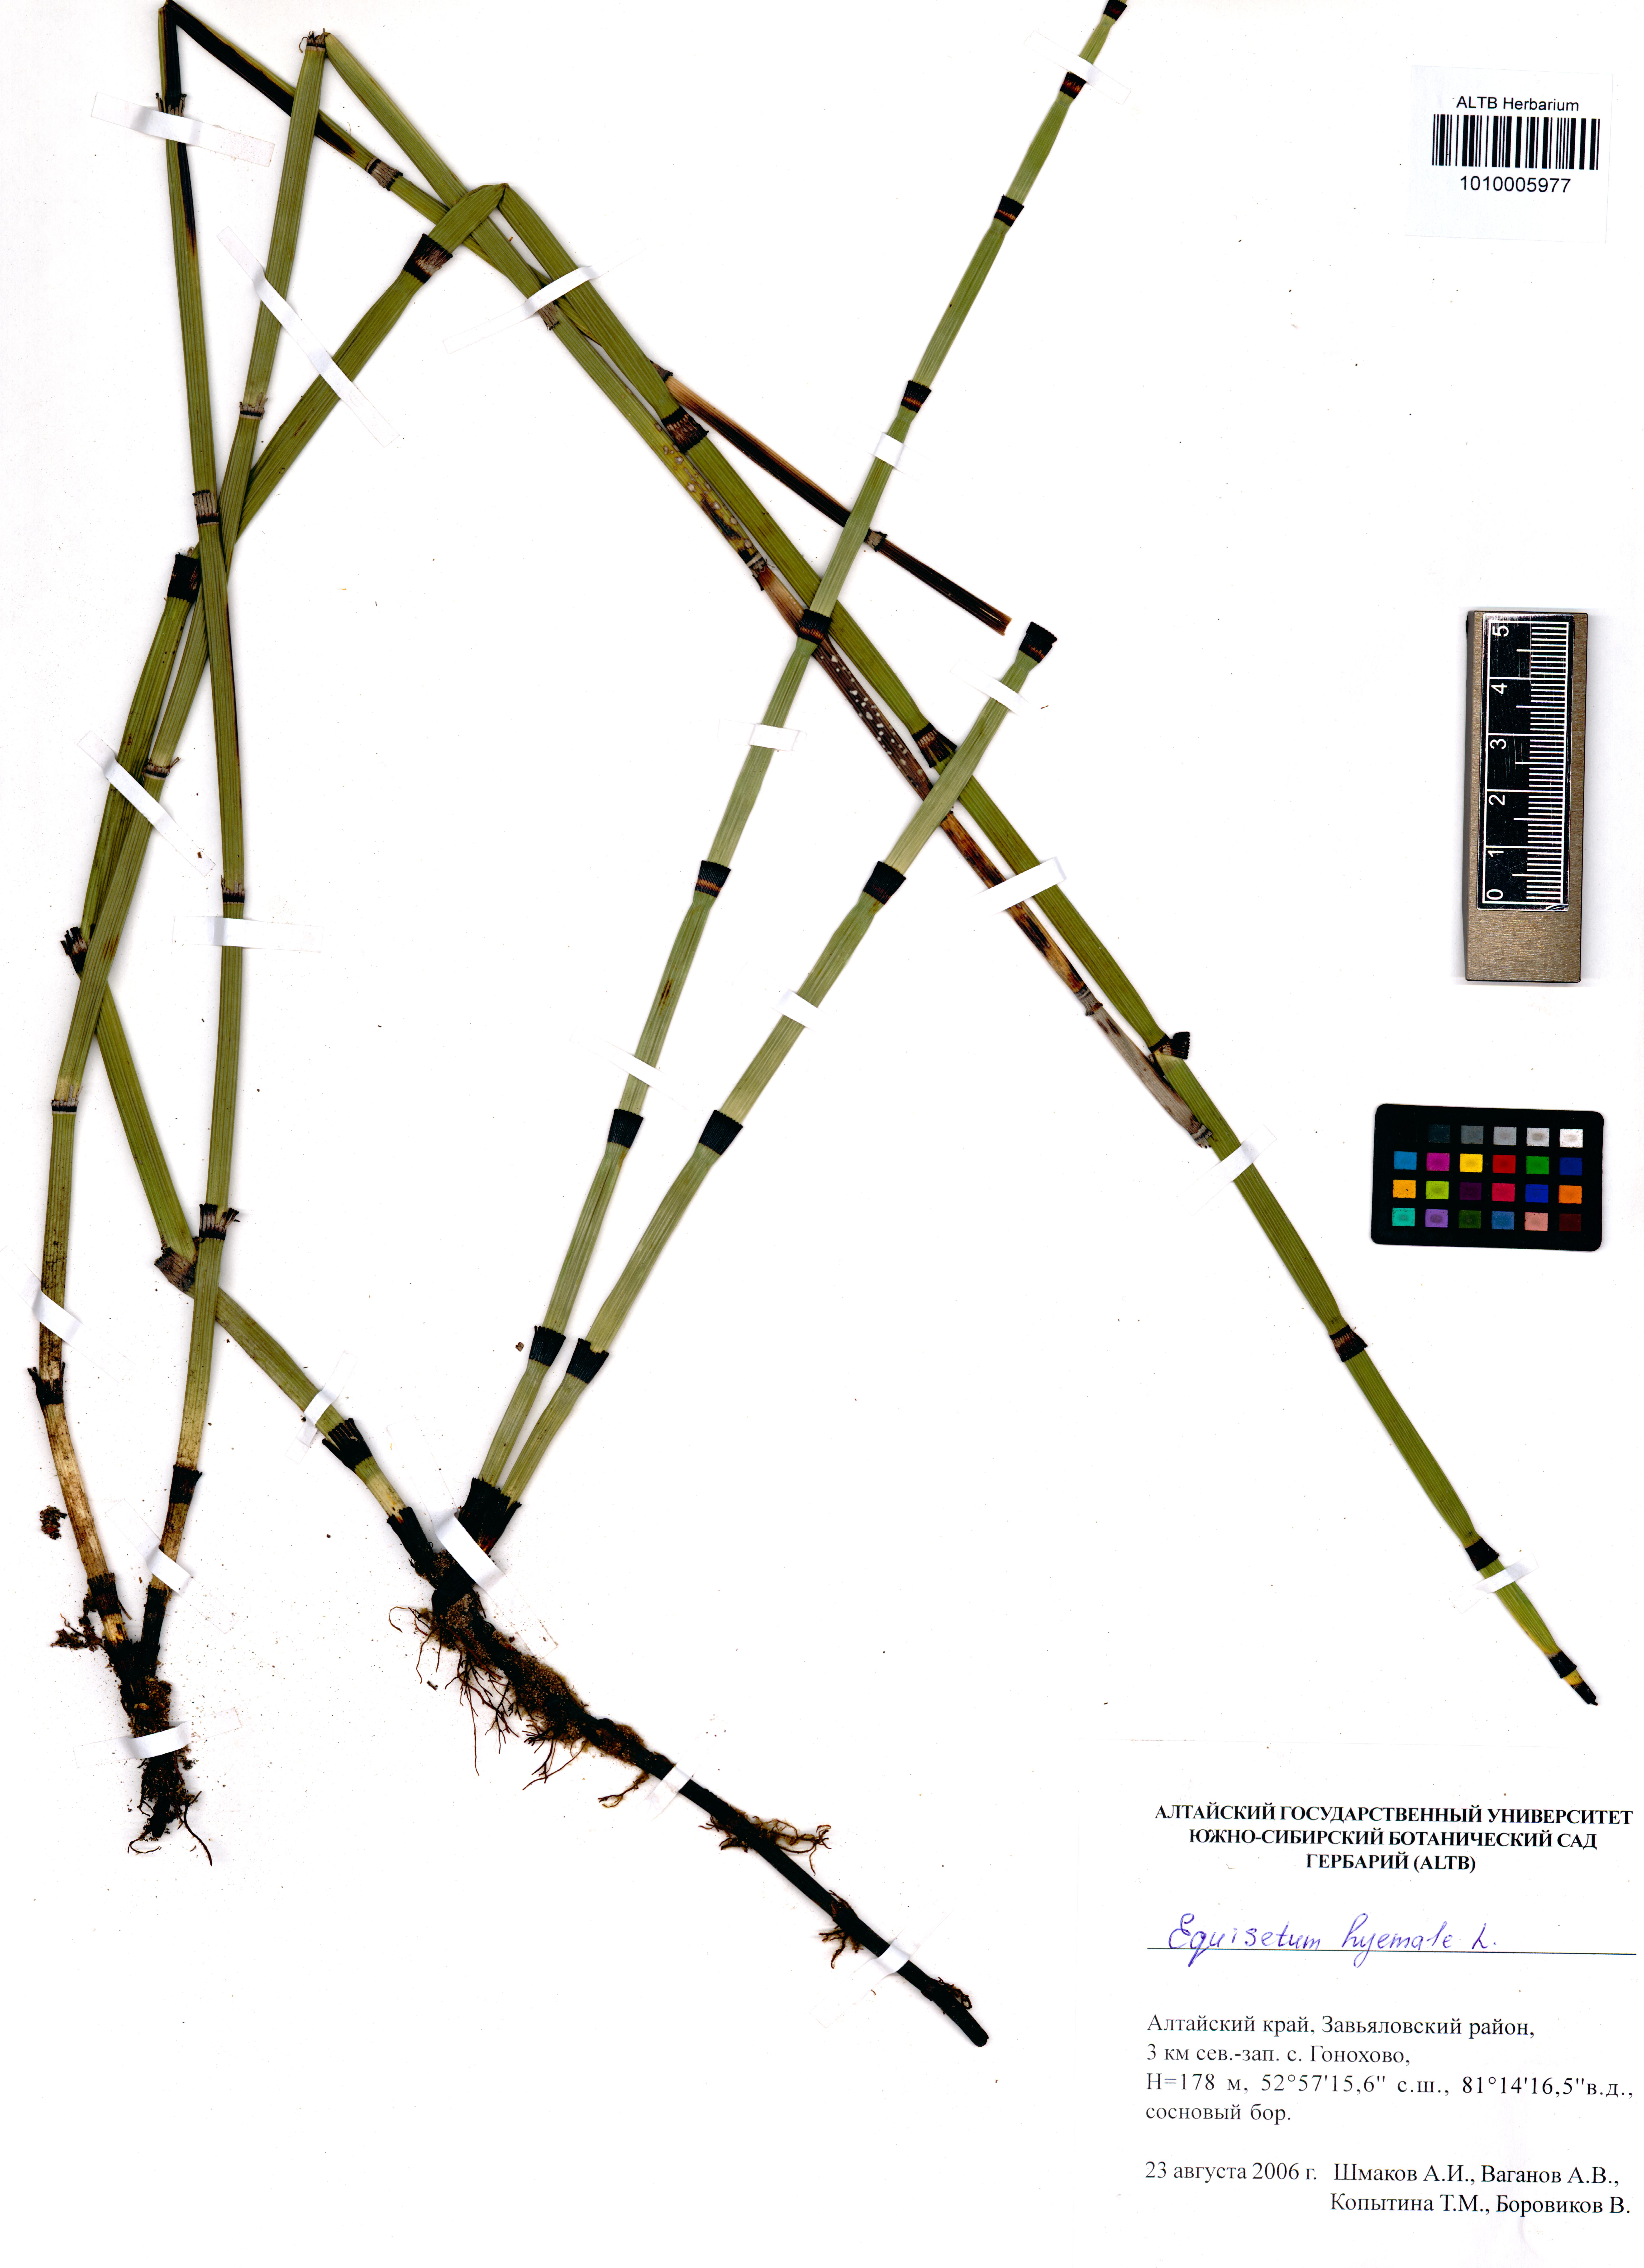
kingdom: Plantae
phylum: Tracheophyta
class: Polypodiopsida
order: Equisetales
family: Equisetaceae
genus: Equisetum
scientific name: Equisetum hyemale
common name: Rough horsetail
